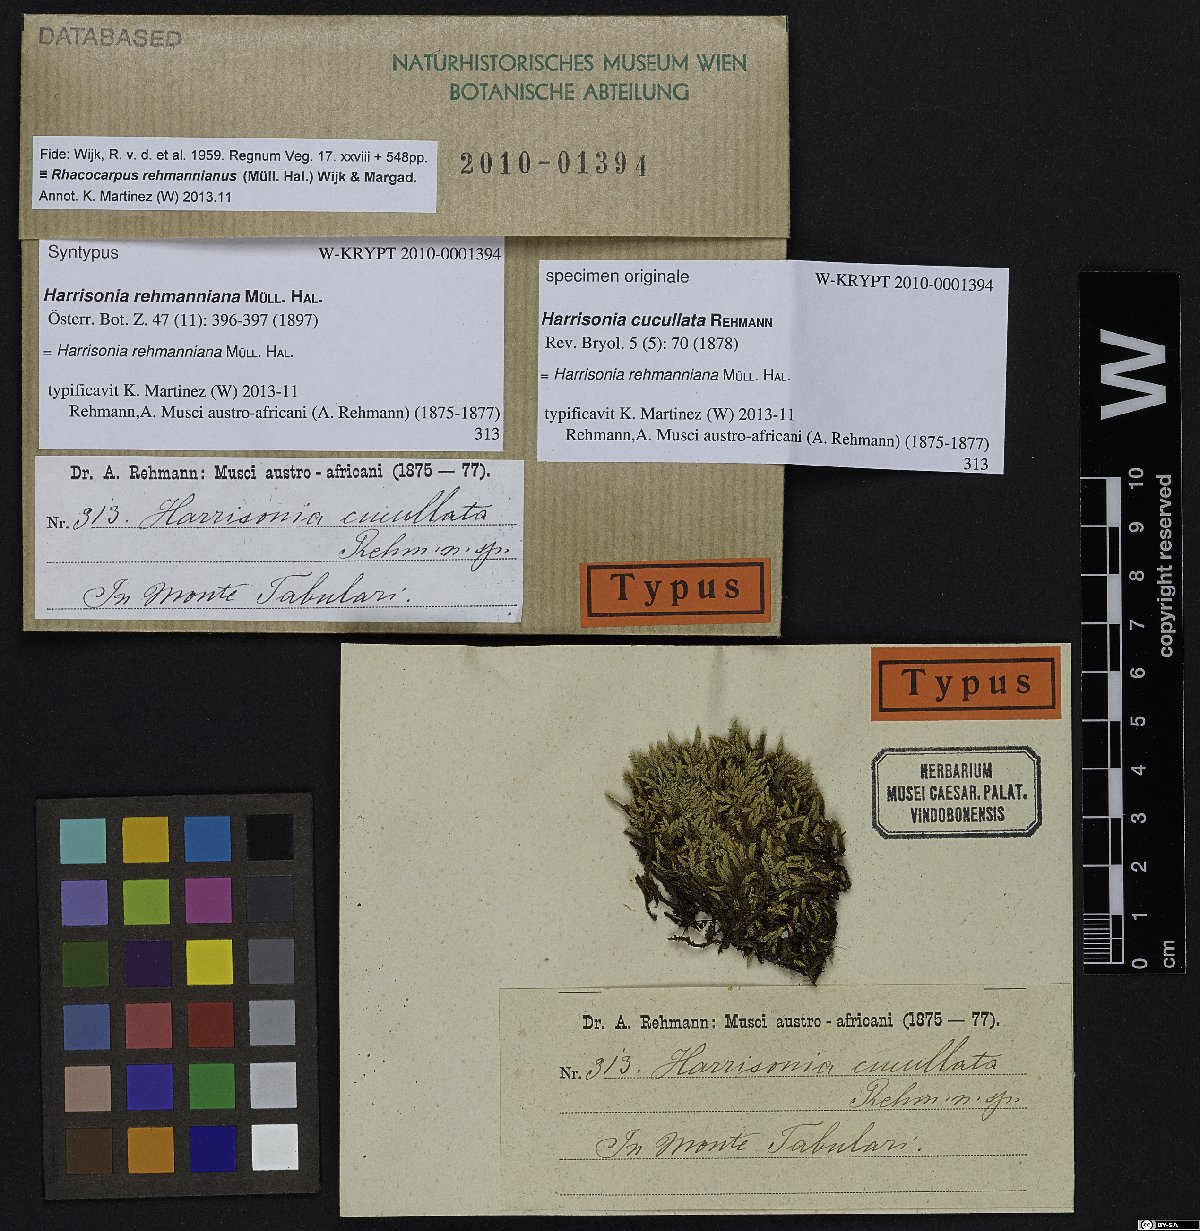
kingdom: Plantae
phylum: Bryophyta
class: Bryopsida
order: Hedwigiales
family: Hedwigiaceae
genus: Rhacocarpus
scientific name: Rhacocarpus rehmannianus
